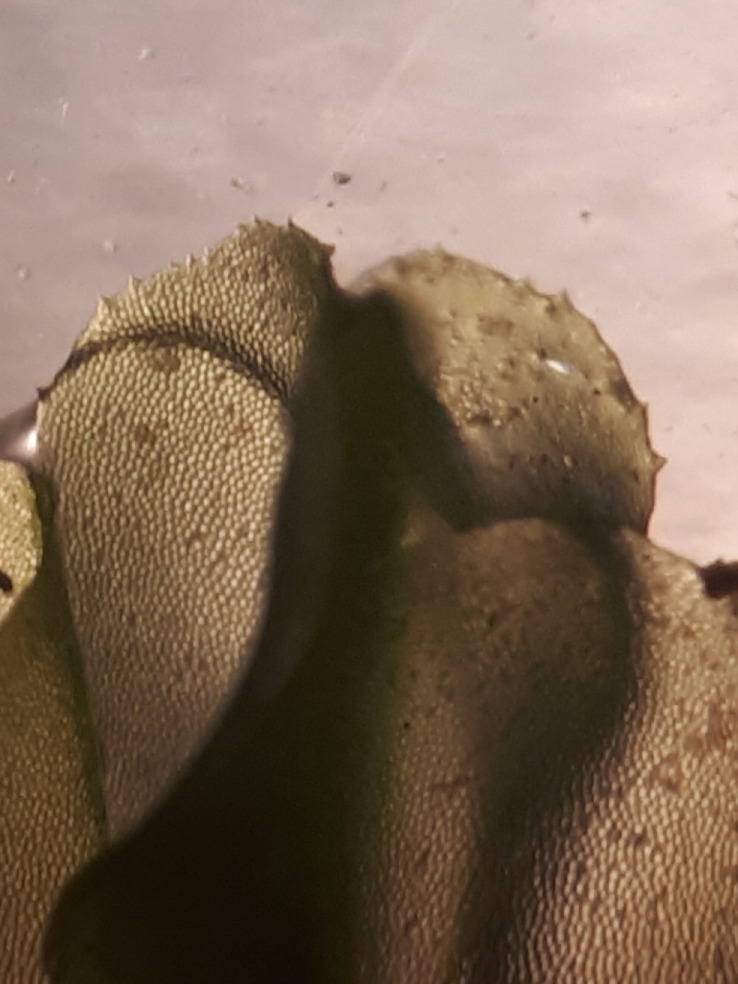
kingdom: Plantae
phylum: Marchantiophyta
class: Jungermanniopsida
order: Jungermanniales
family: Plagiochilaceae
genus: Plagiochila
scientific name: Plagiochila asplenioides
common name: Radeløv-hindeblad
